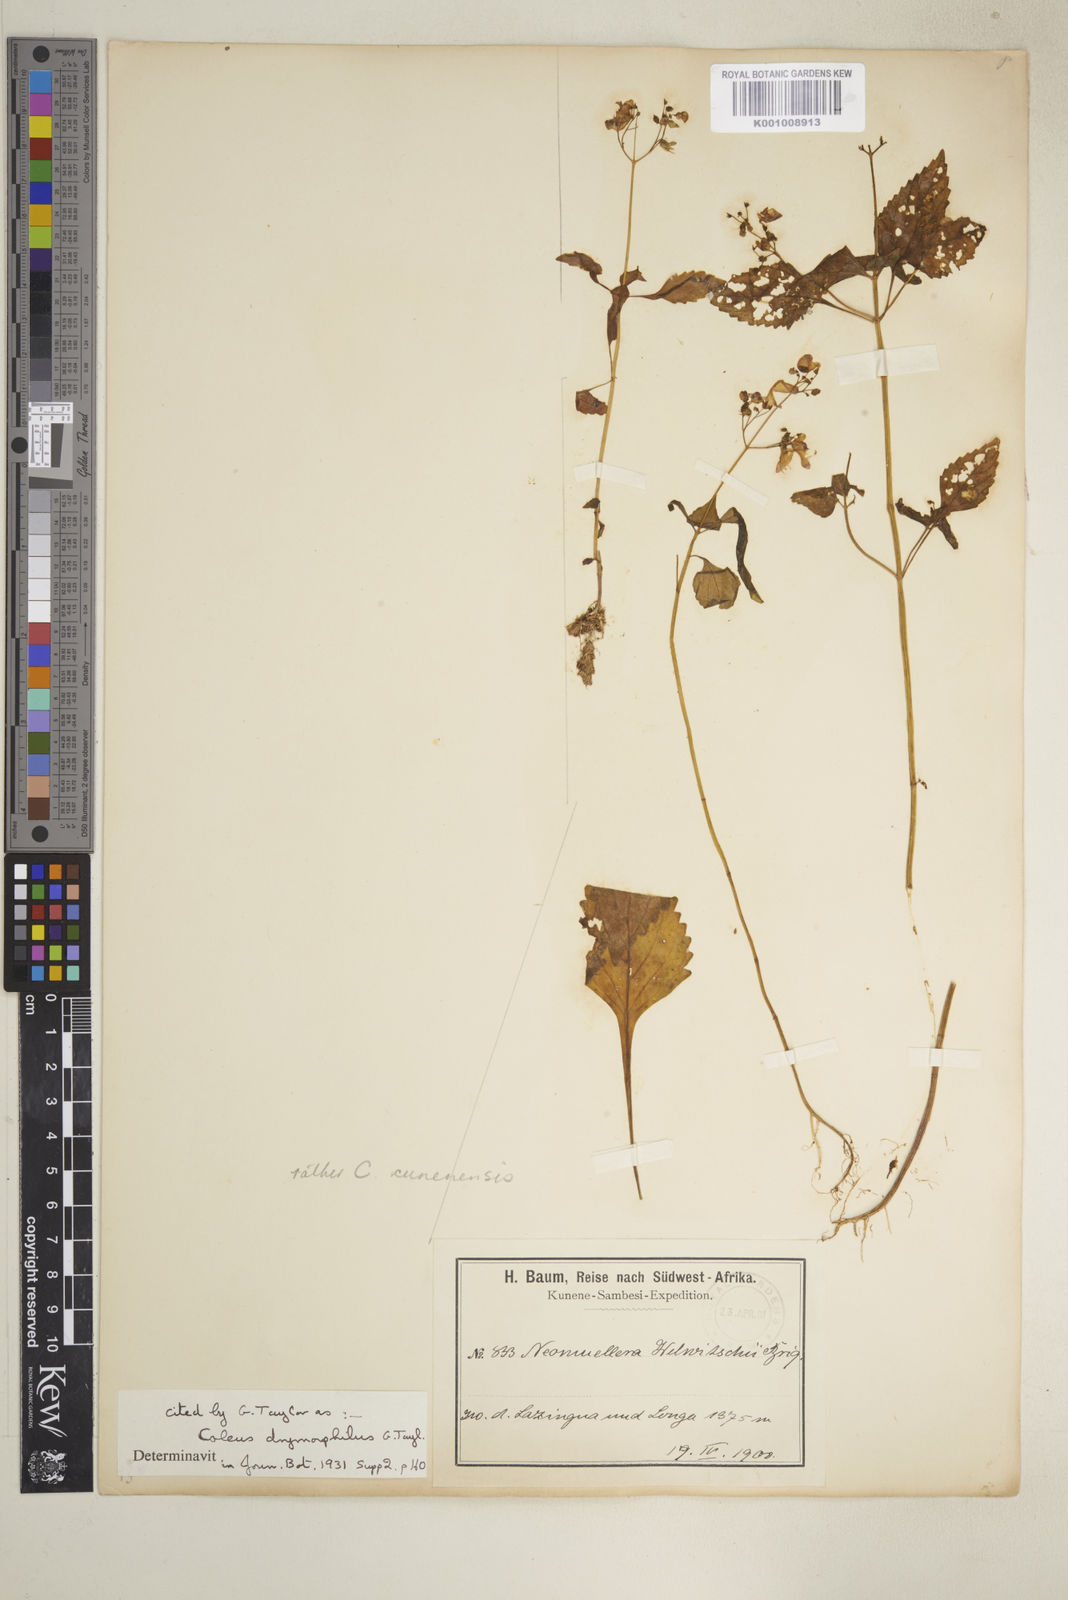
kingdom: Plantae
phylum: Tracheophyta
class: Magnoliopsida
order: Lamiales
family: Lamiaceae
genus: Coleus
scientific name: Coleus tenuicaulis
